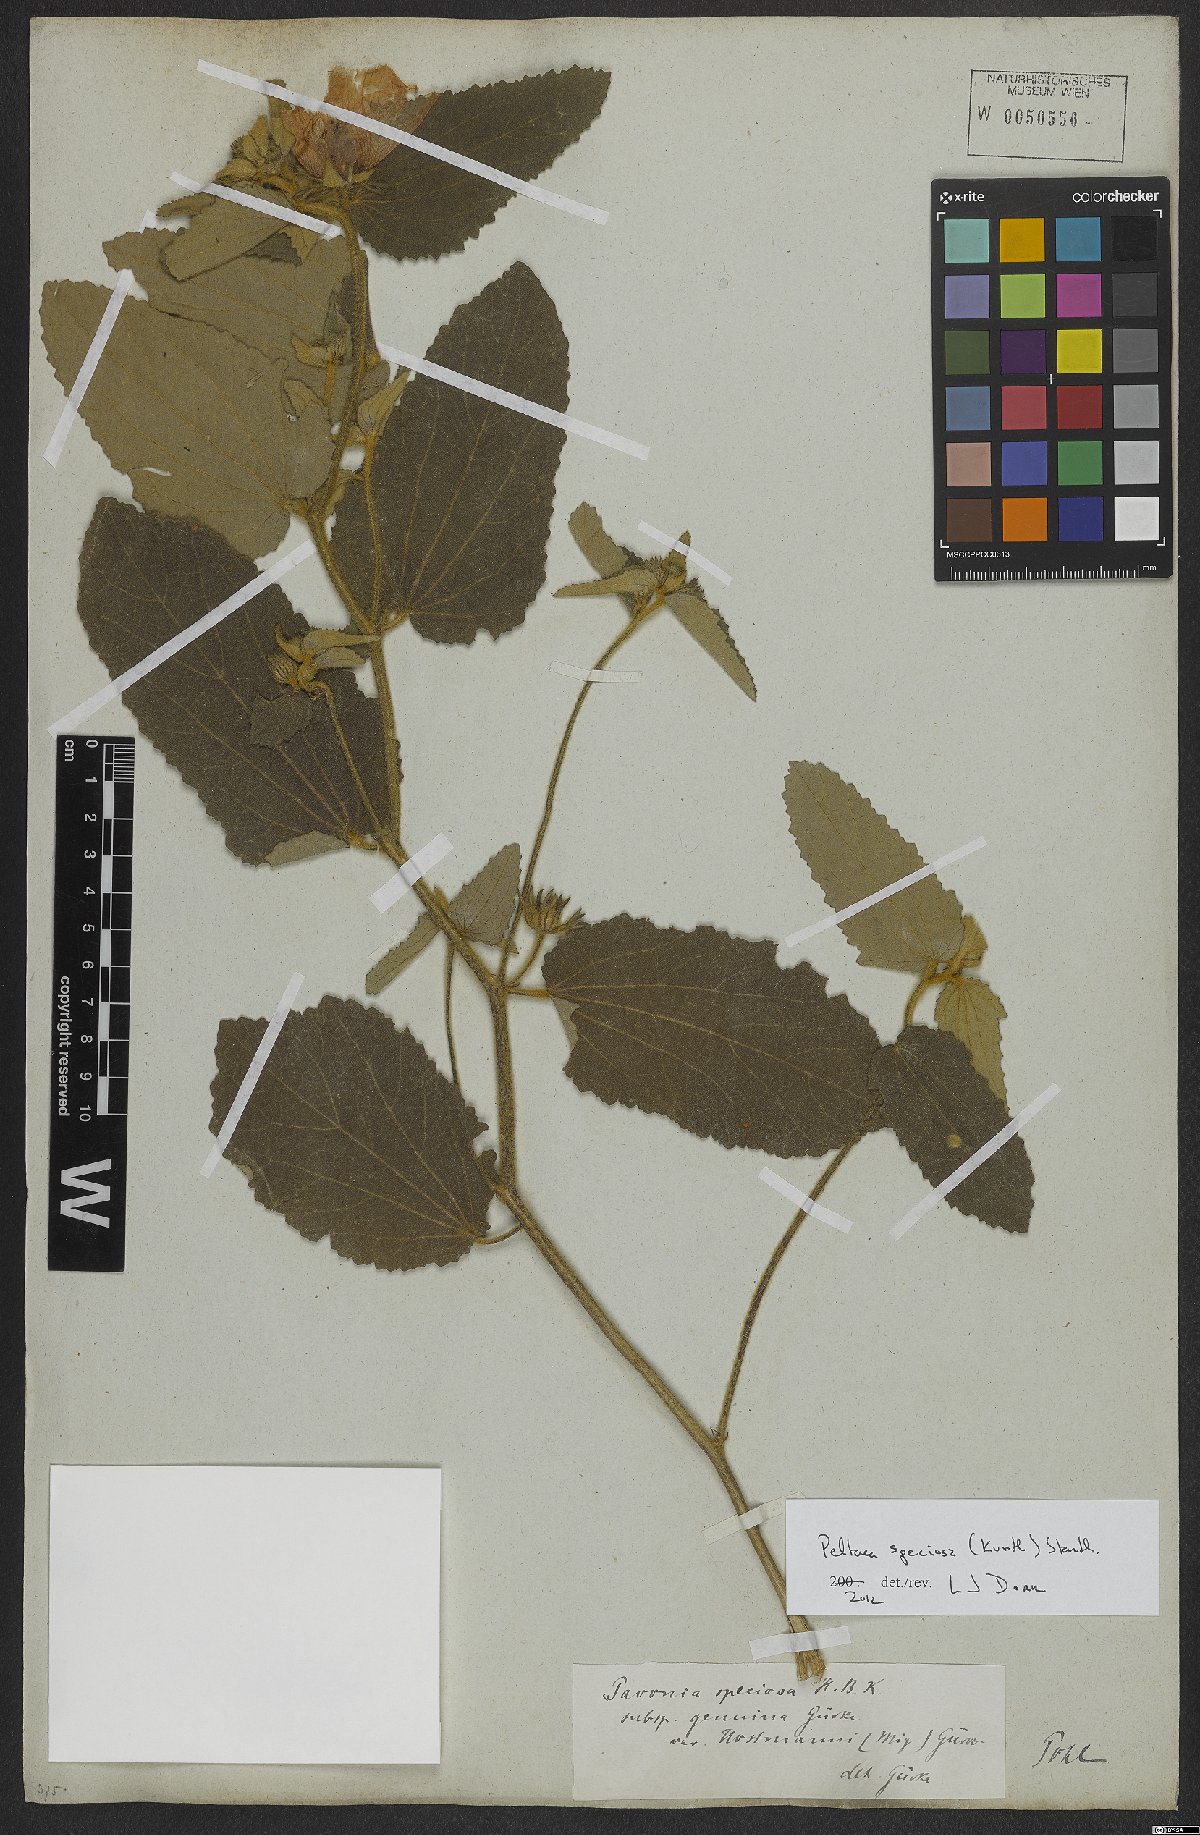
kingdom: Plantae
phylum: Tracheophyta
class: Magnoliopsida
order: Malvales
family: Malvaceae
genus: Peltaea
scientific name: Peltaea speciosa
